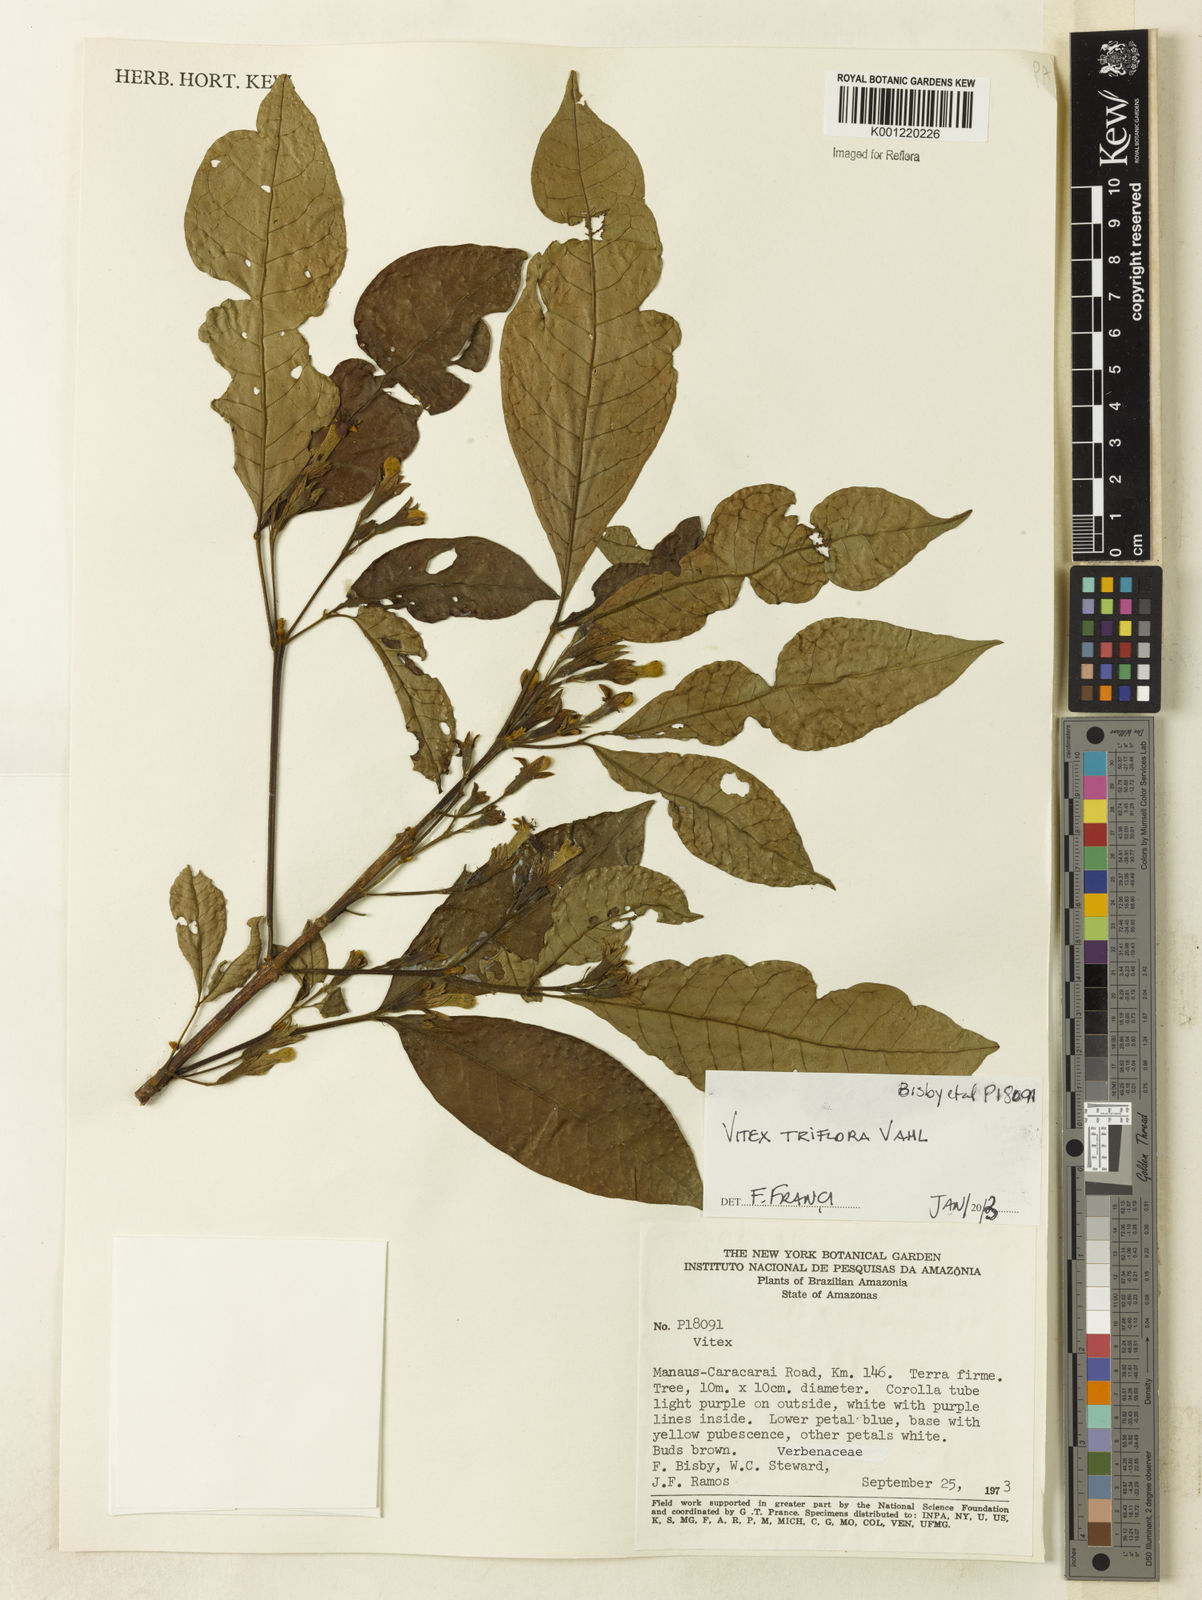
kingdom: Plantae
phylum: Tracheophyta
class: Magnoliopsida
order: Lamiales
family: Lamiaceae
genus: Vitex
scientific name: Vitex triflora
